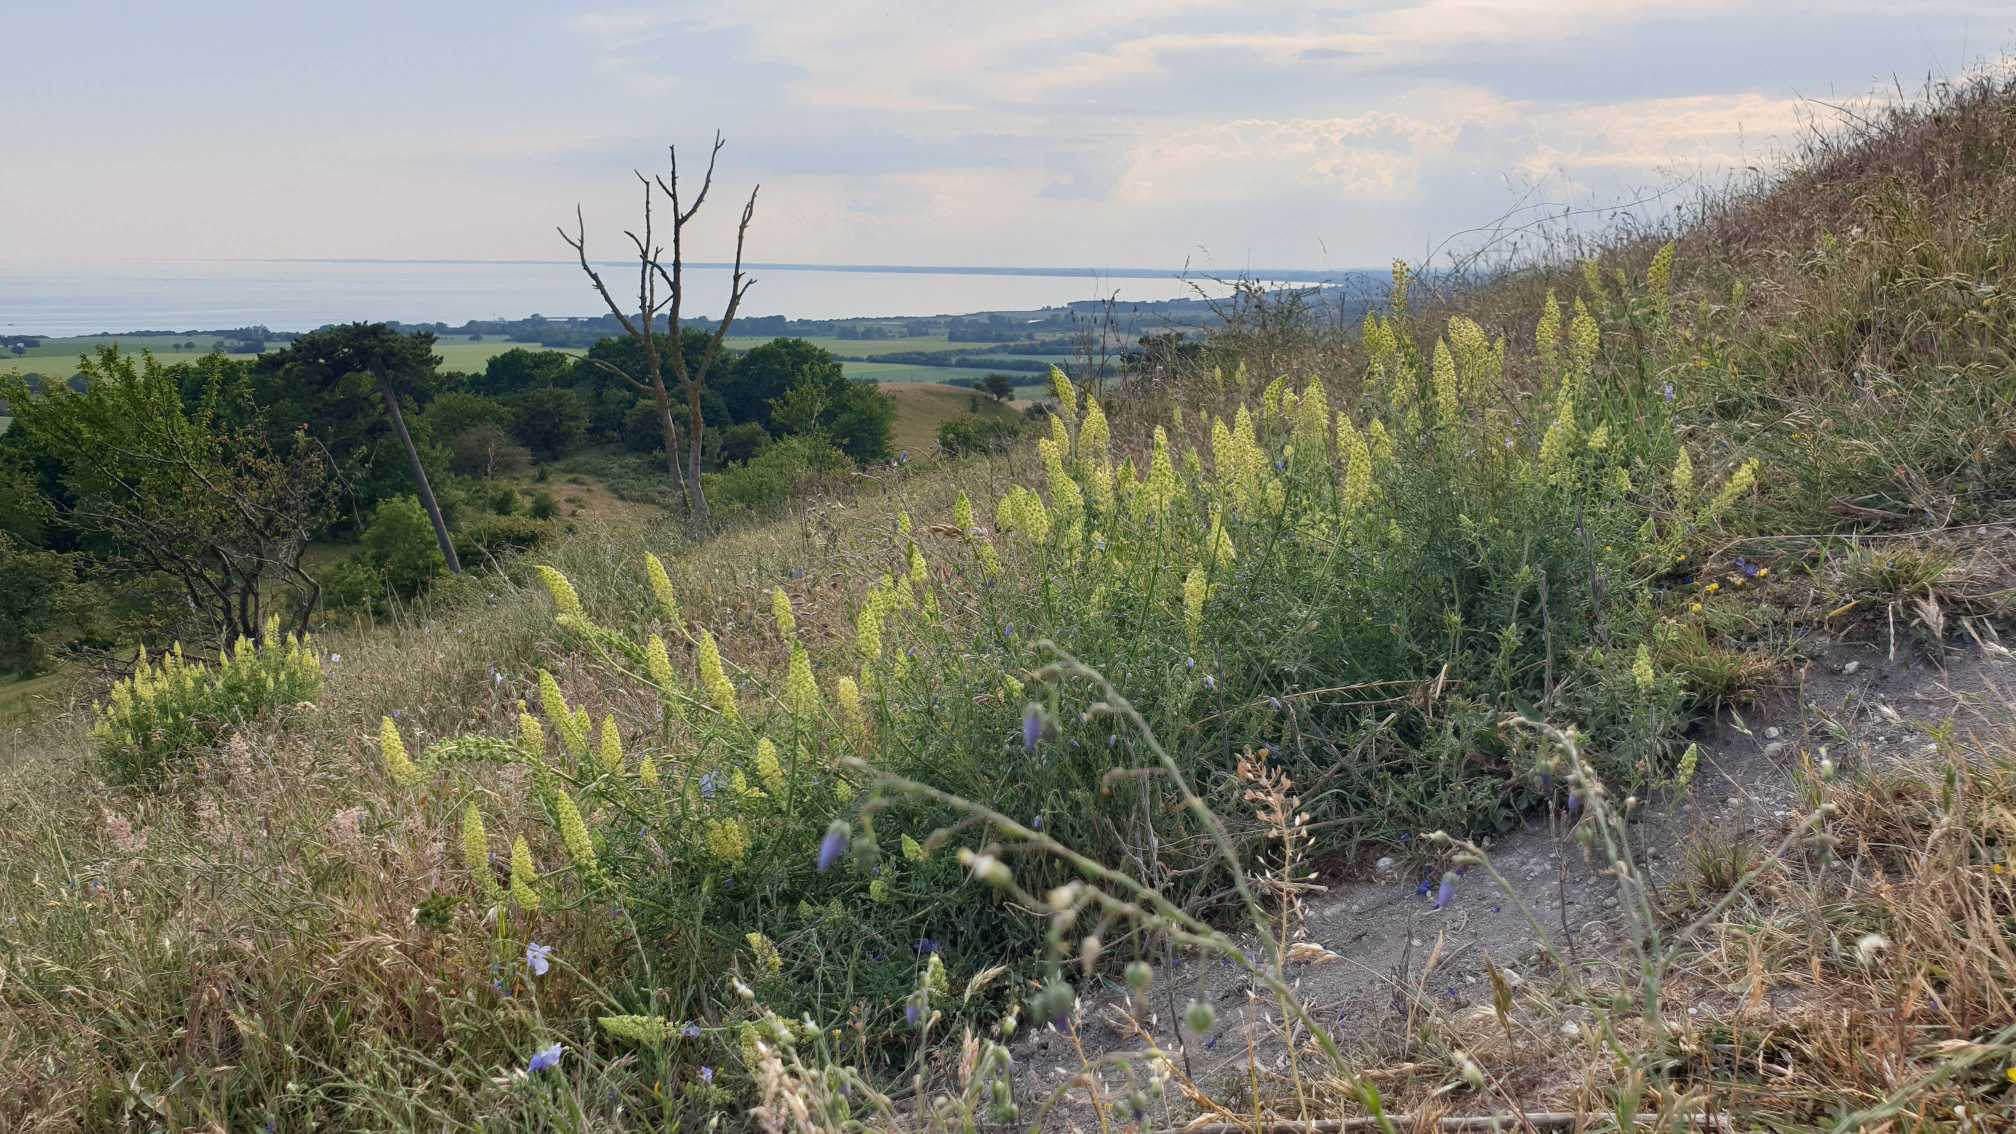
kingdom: Plantae
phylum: Tracheophyta
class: Magnoliopsida
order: Brassicales
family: Resedaceae
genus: Reseda
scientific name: Reseda lutea
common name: Gul reseda
